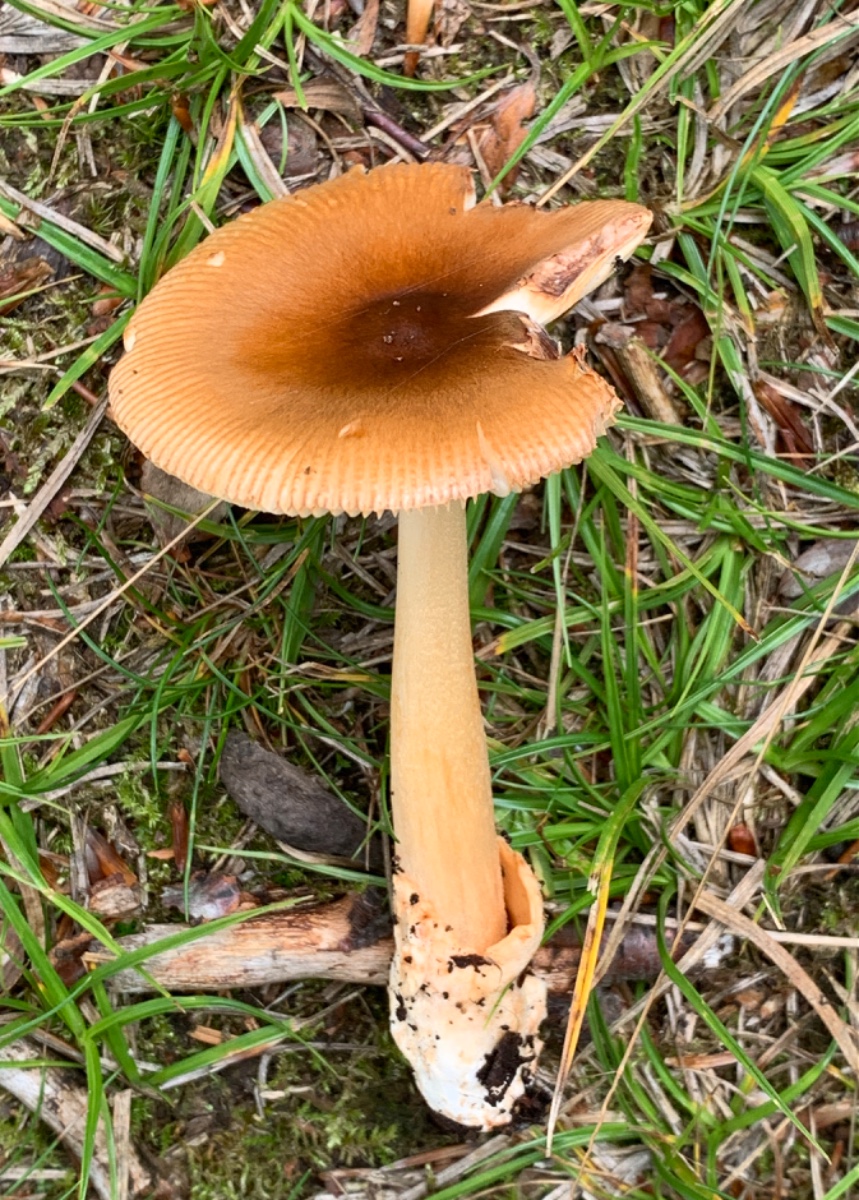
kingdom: Fungi
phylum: Basidiomycota
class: Agaricomycetes
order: Agaricales
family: Amanitaceae
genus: Amanita
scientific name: Amanita fulva
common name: brun kam-fluesvamp
